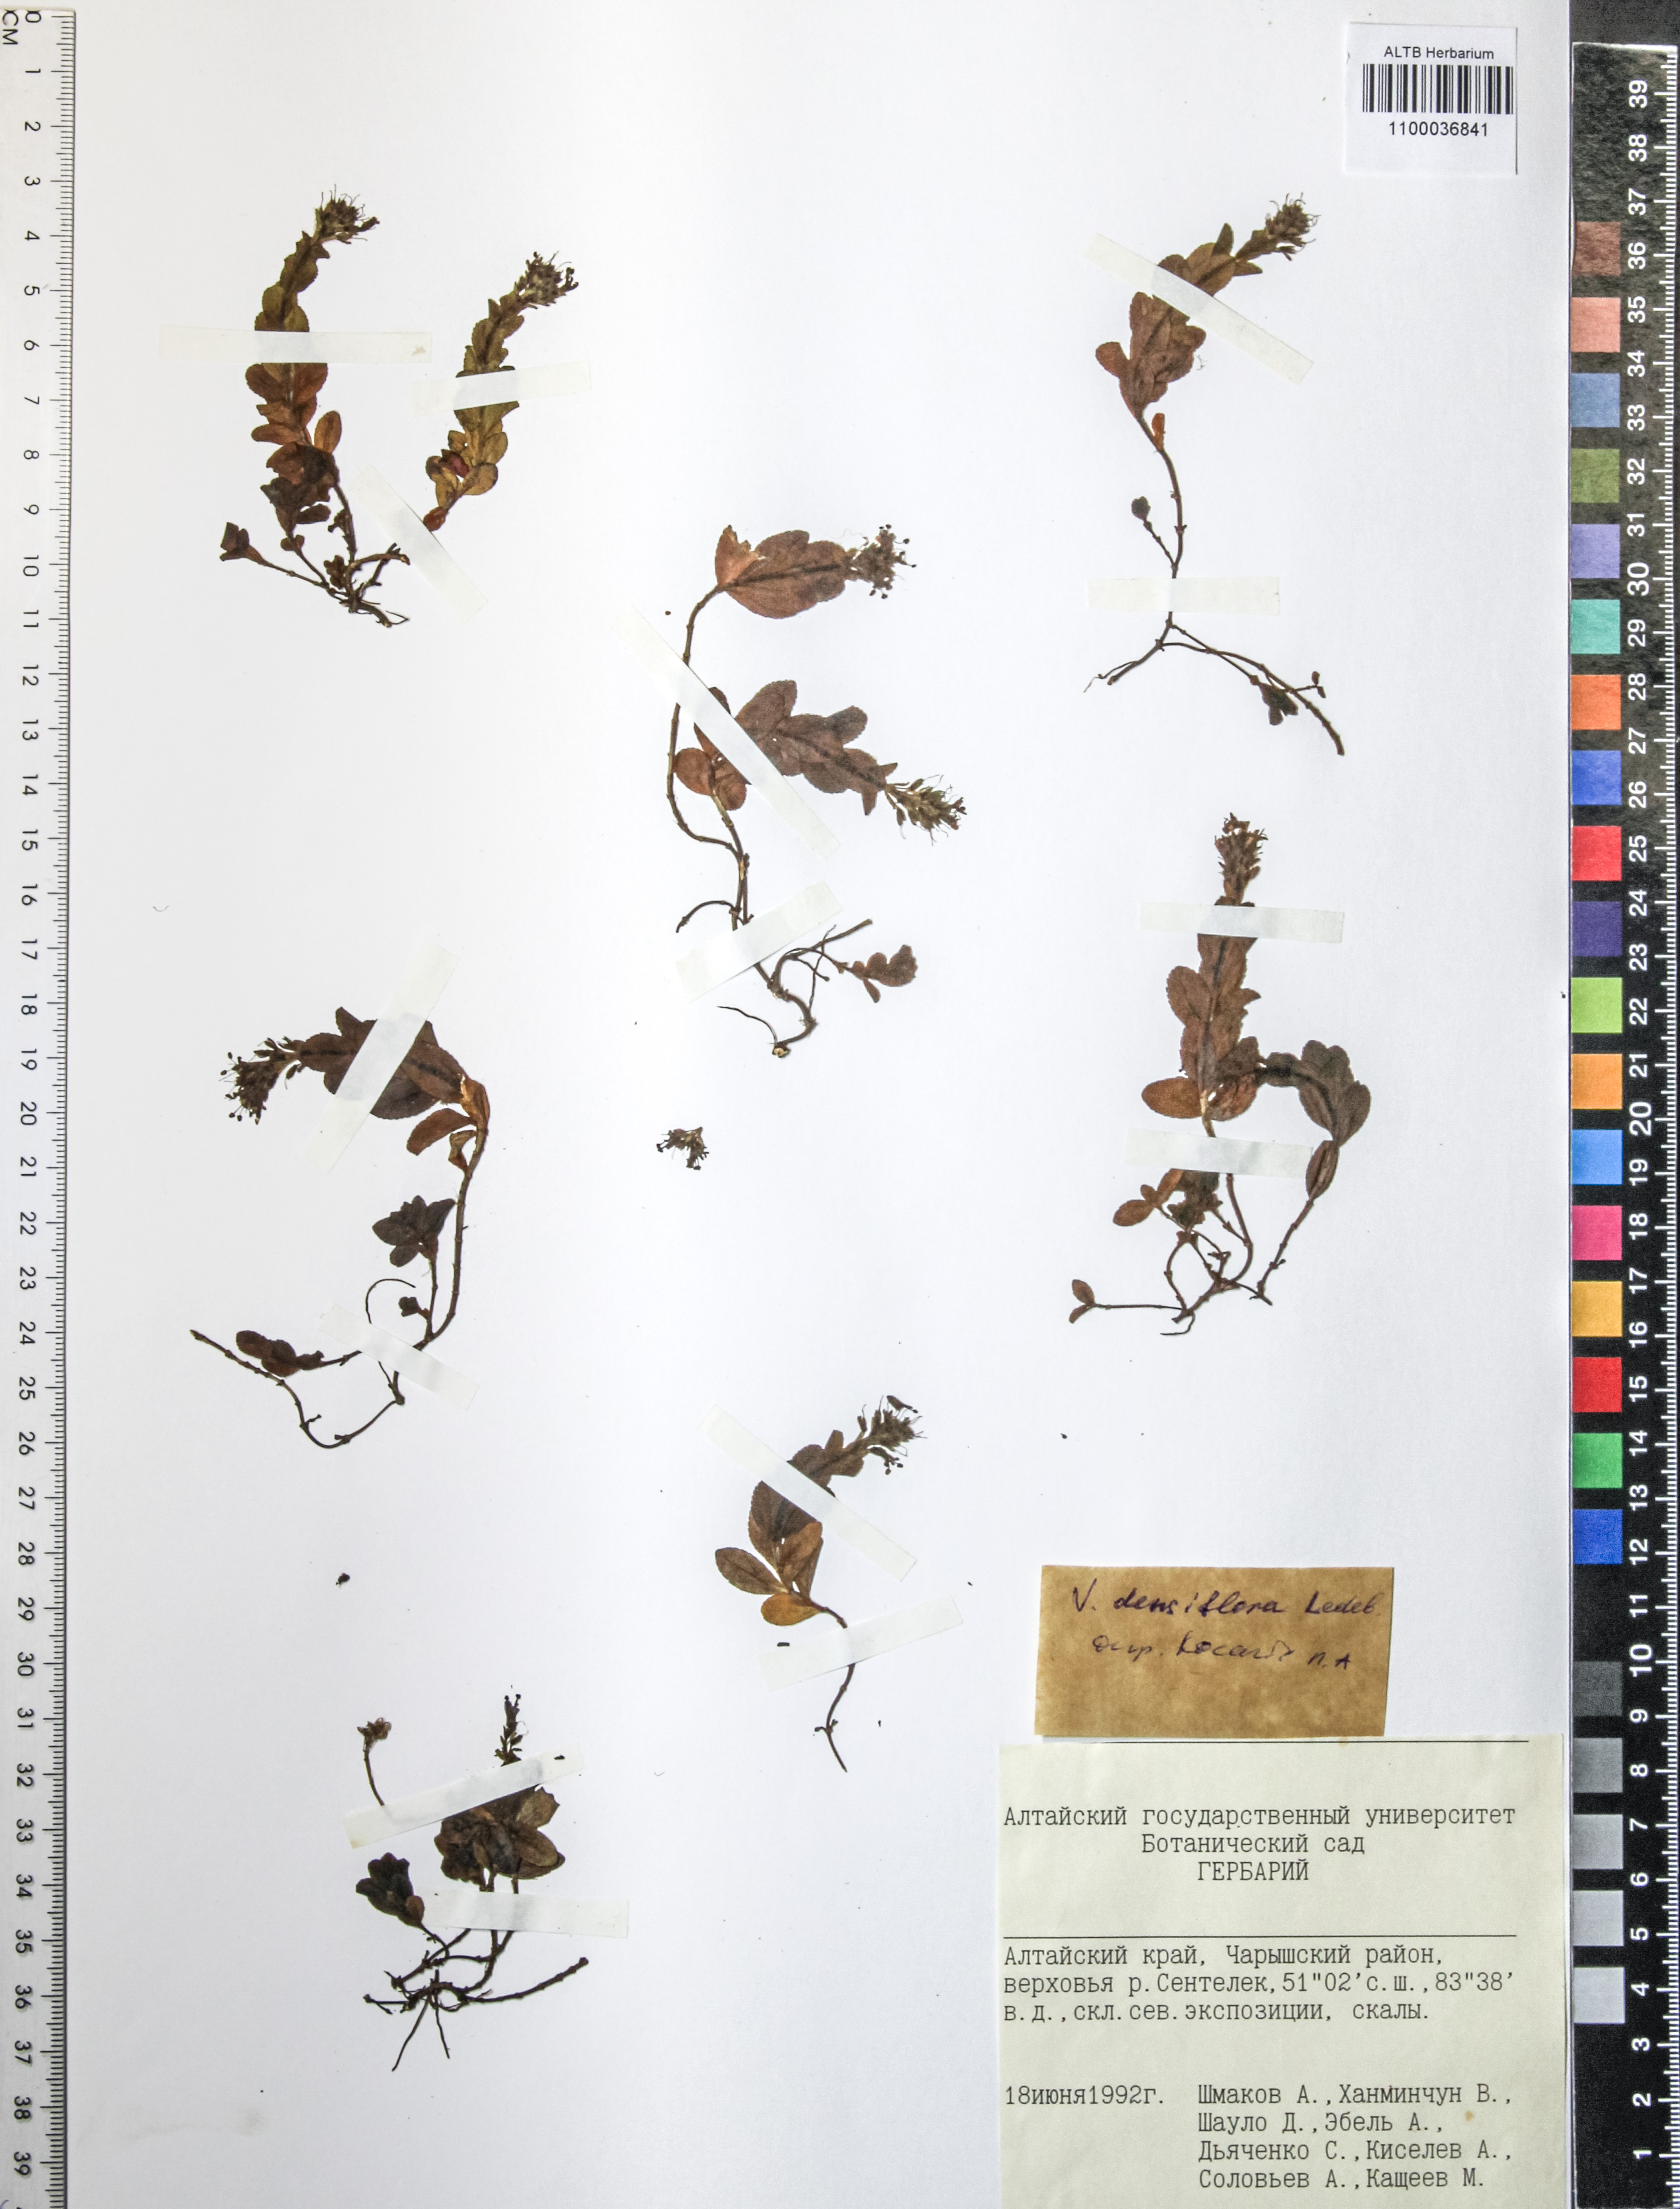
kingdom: Plantae
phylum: Tracheophyta
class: Magnoliopsida
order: Lamiales
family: Plantaginaceae
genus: Veronica
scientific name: Veronica densiflora
